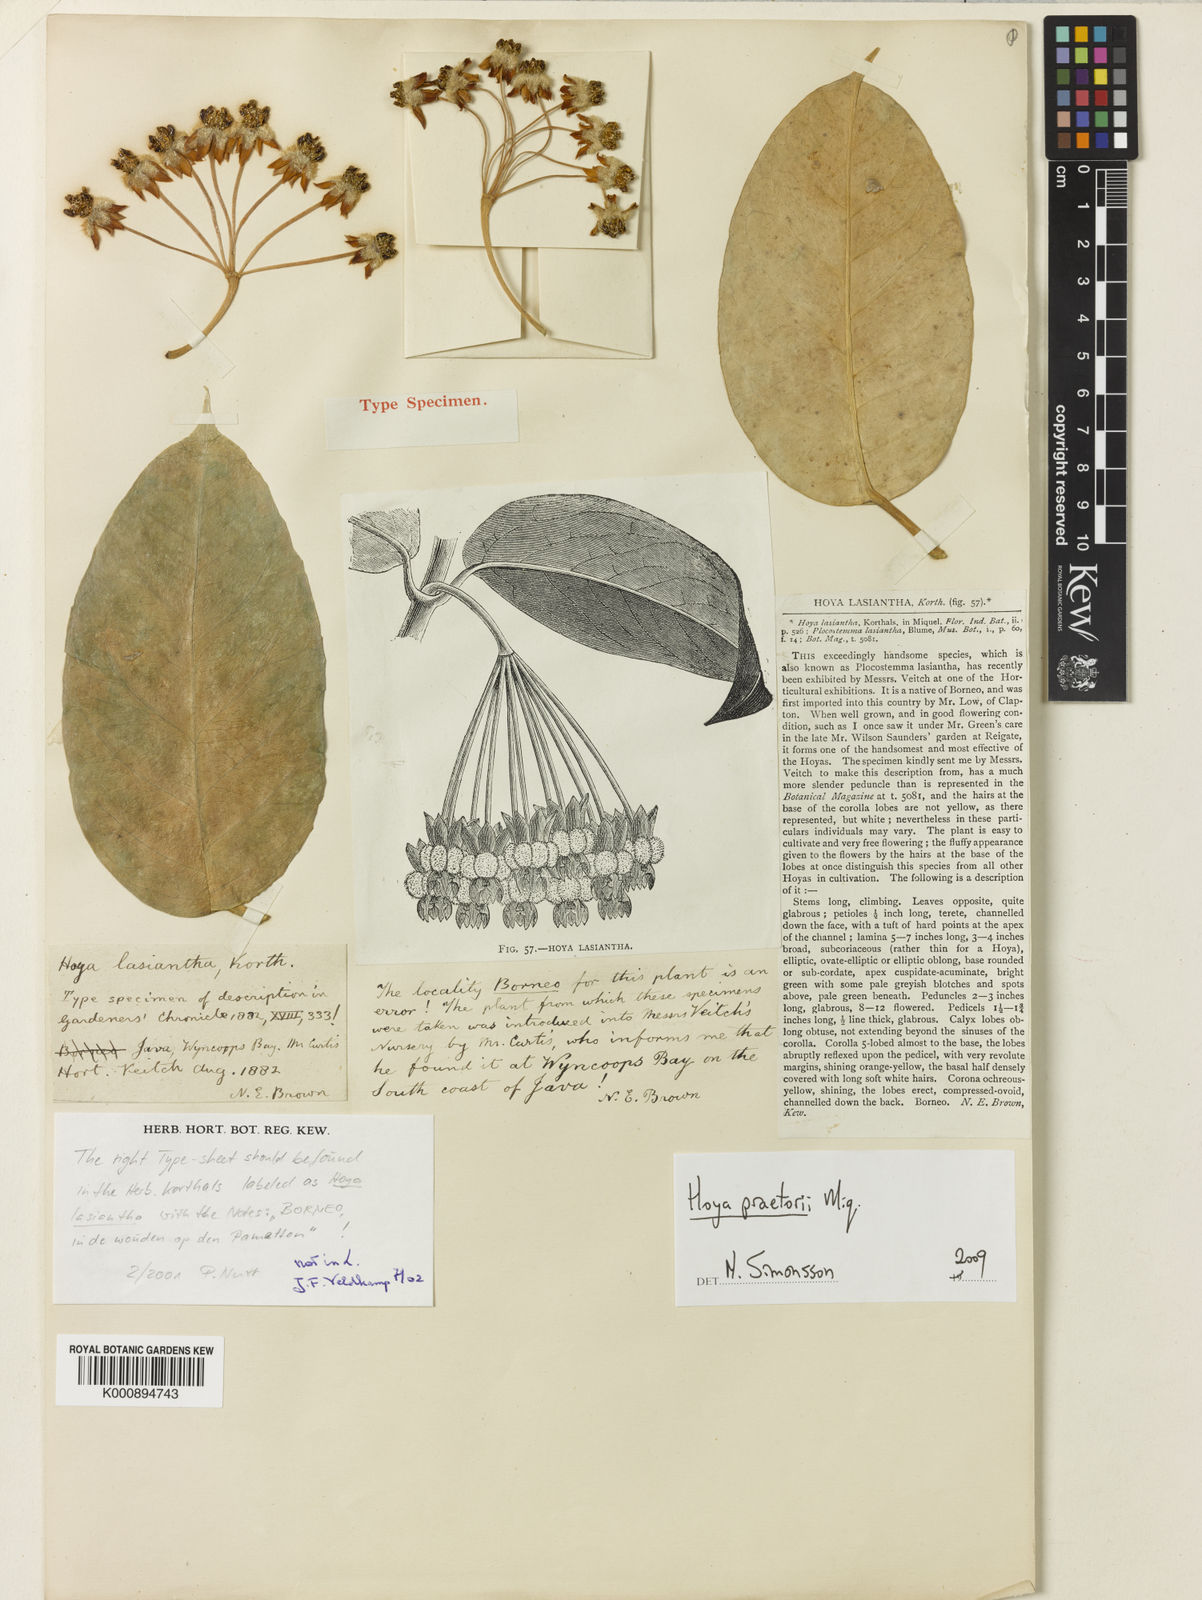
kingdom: Plantae
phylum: Tracheophyta
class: Magnoliopsida
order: Gentianales
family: Apocynaceae
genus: Hoya
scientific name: Hoya lasiantha
